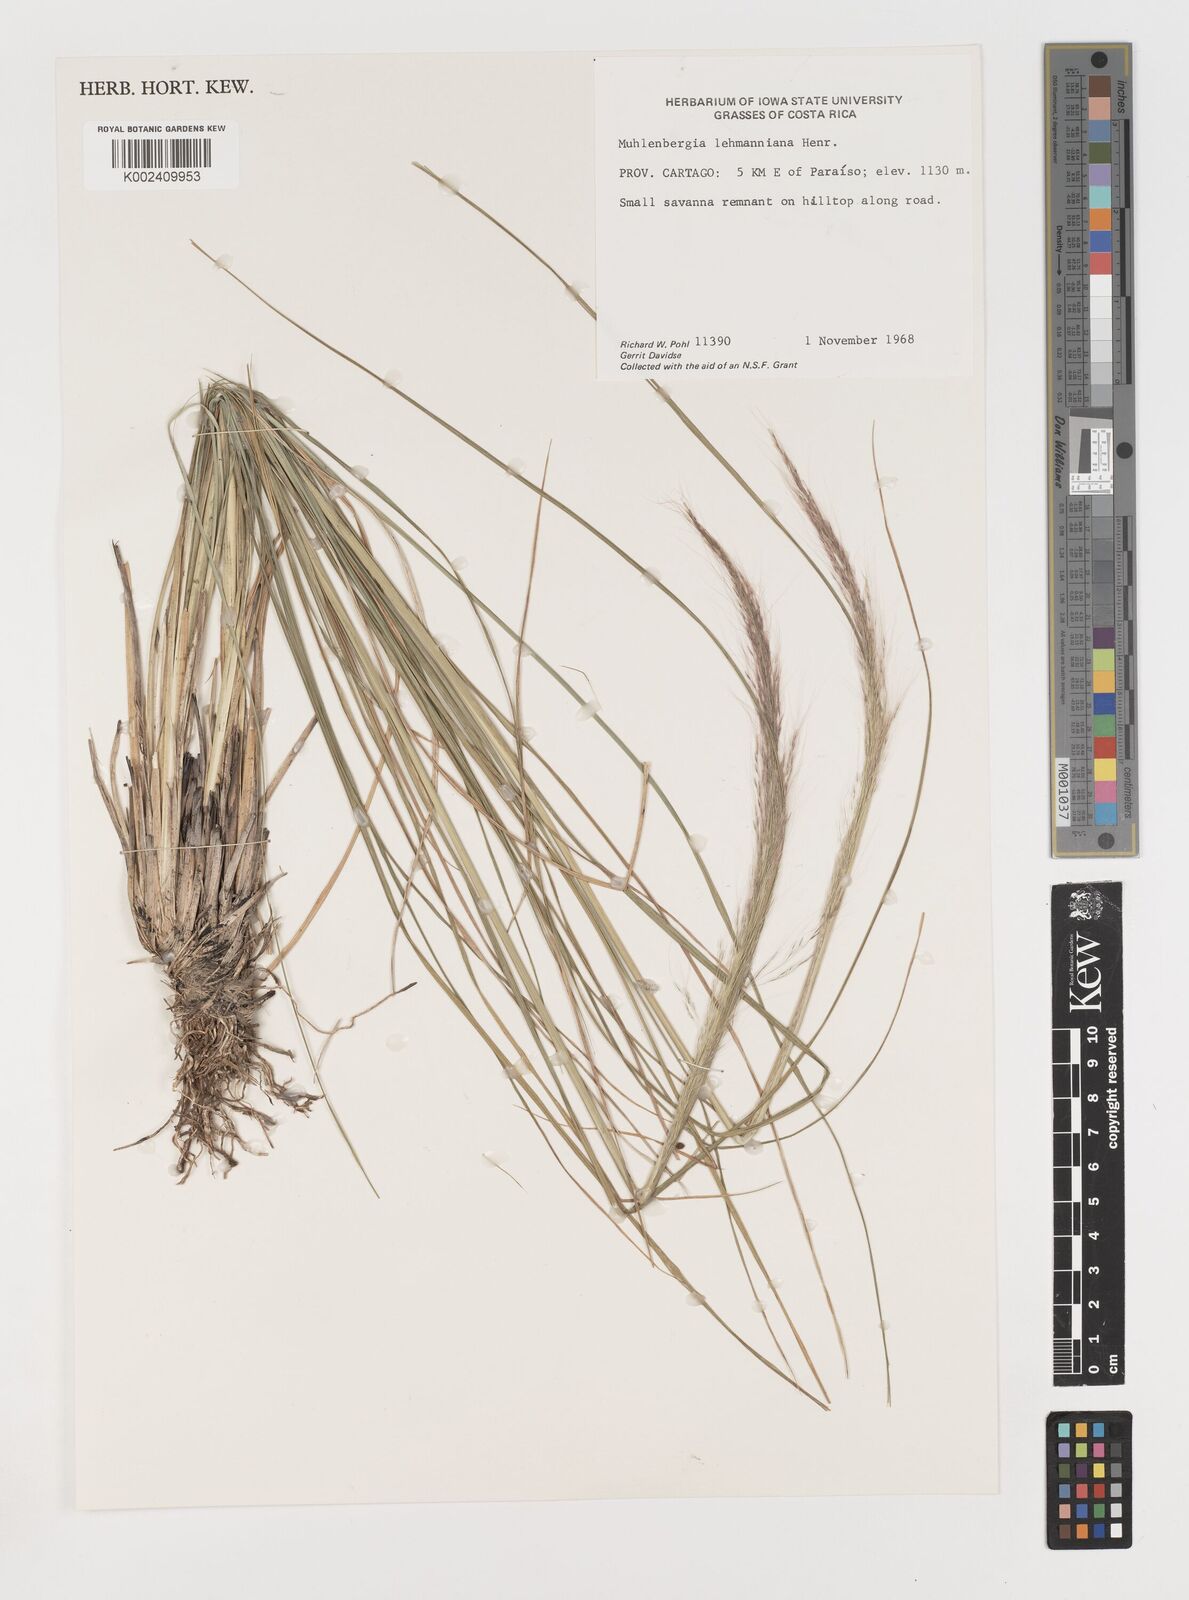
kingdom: Plantae
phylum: Tracheophyta
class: Liliopsida
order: Poales
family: Poaceae
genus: Muhlenbergia
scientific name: Muhlenbergia lehmanniana
